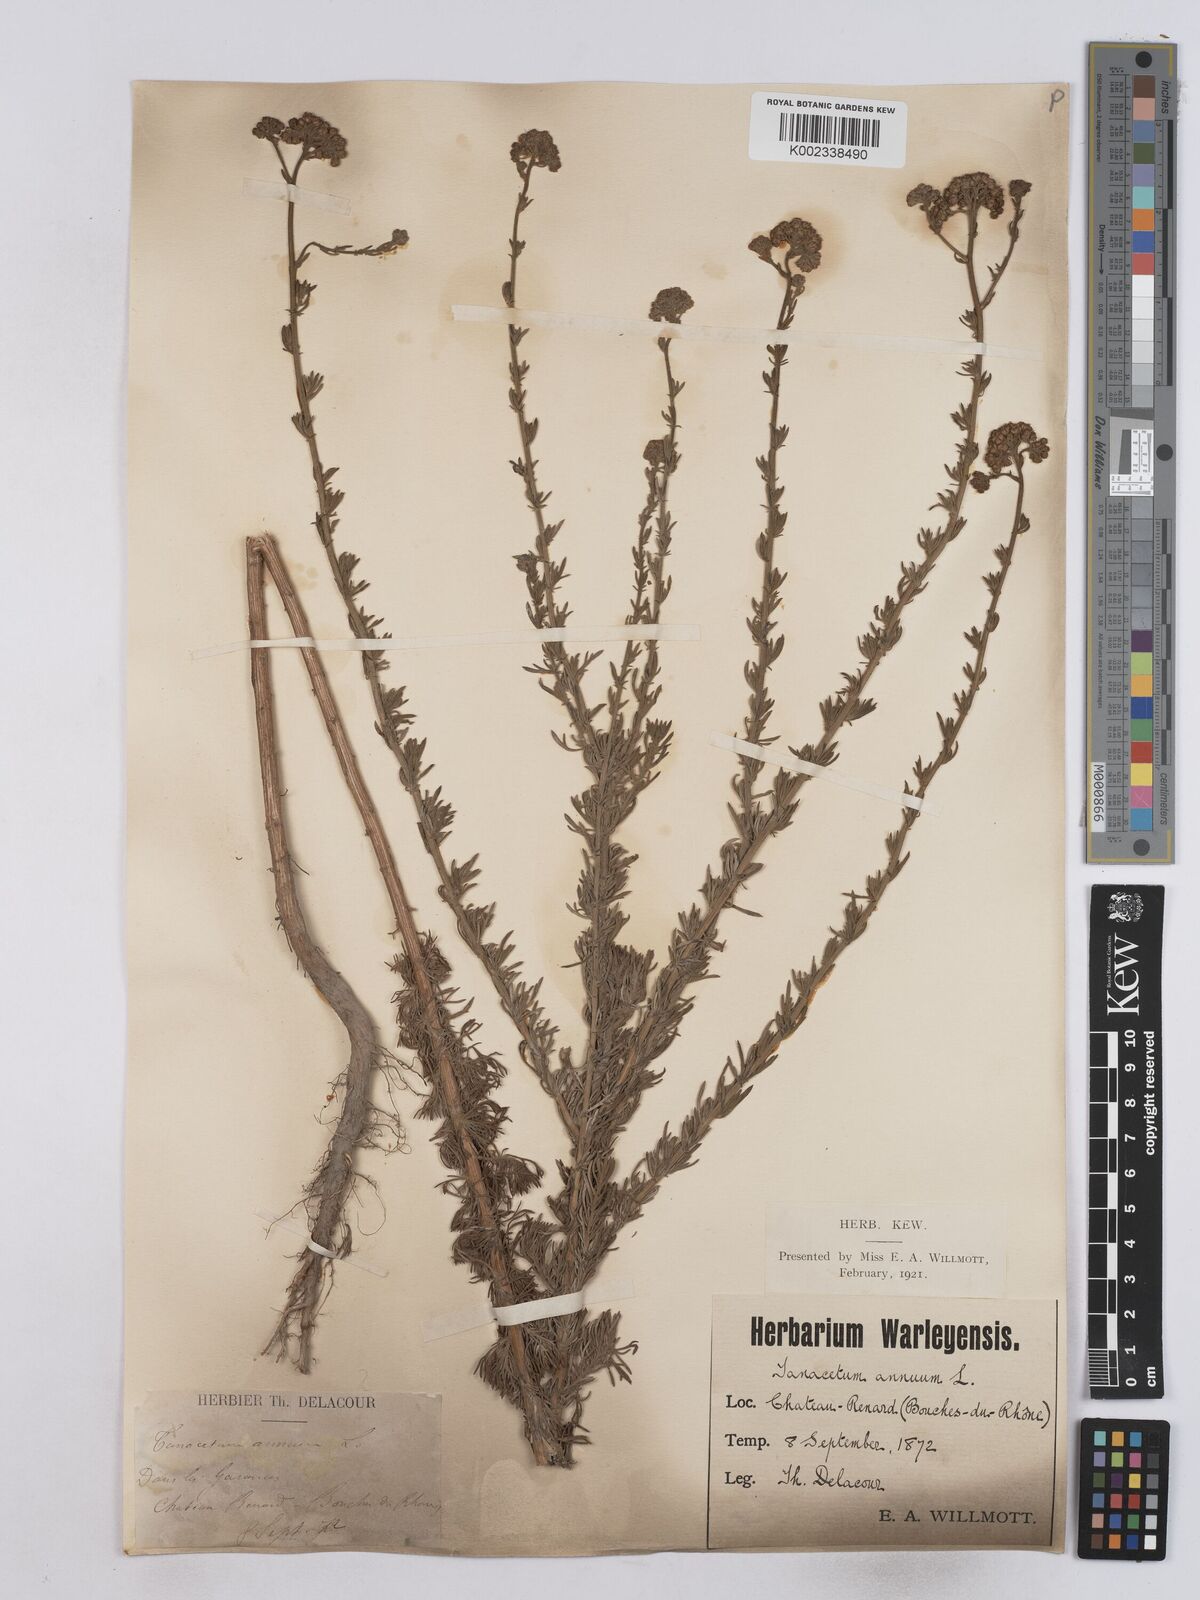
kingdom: Plantae
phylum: Tracheophyta
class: Magnoliopsida
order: Asterales
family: Asteraceae
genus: Vogtia
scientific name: Vogtia annua
